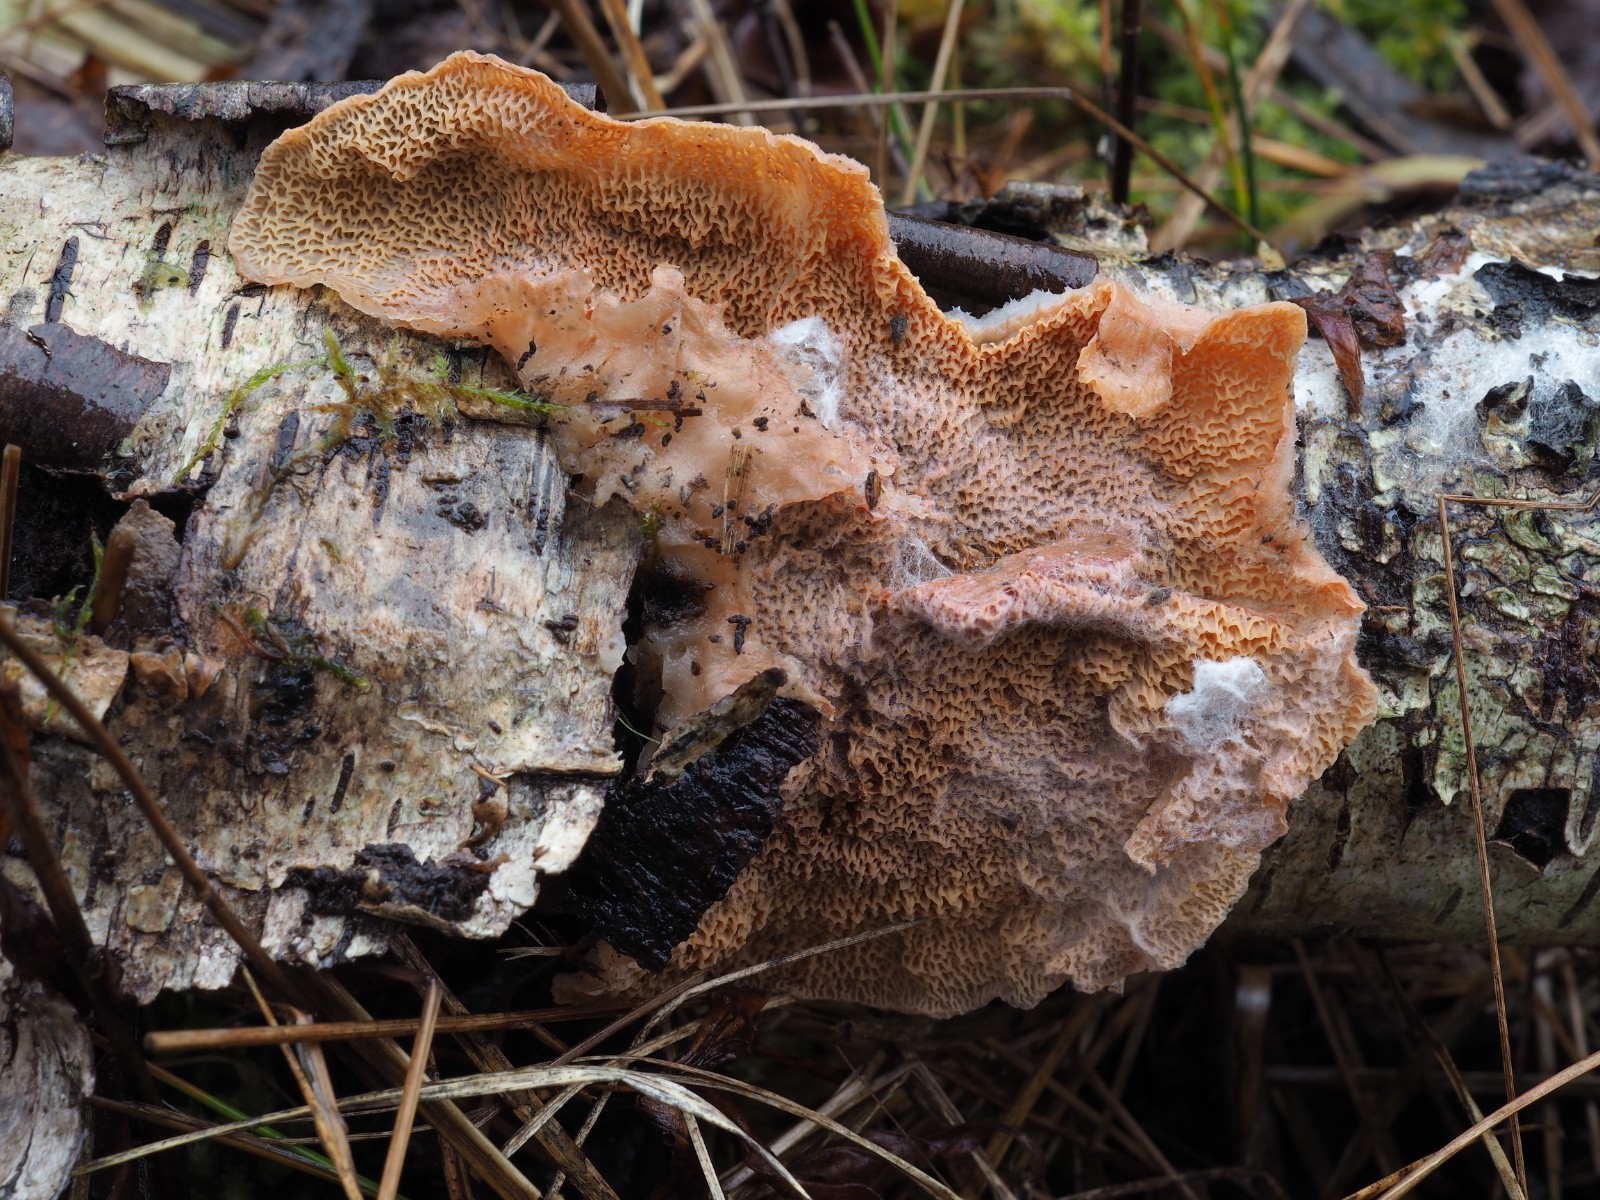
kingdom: Fungi
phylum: Basidiomycota
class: Agaricomycetes
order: Polyporales
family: Meruliaceae
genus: Phlebia
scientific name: Phlebia tremellosa
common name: bævrende åresvamp
